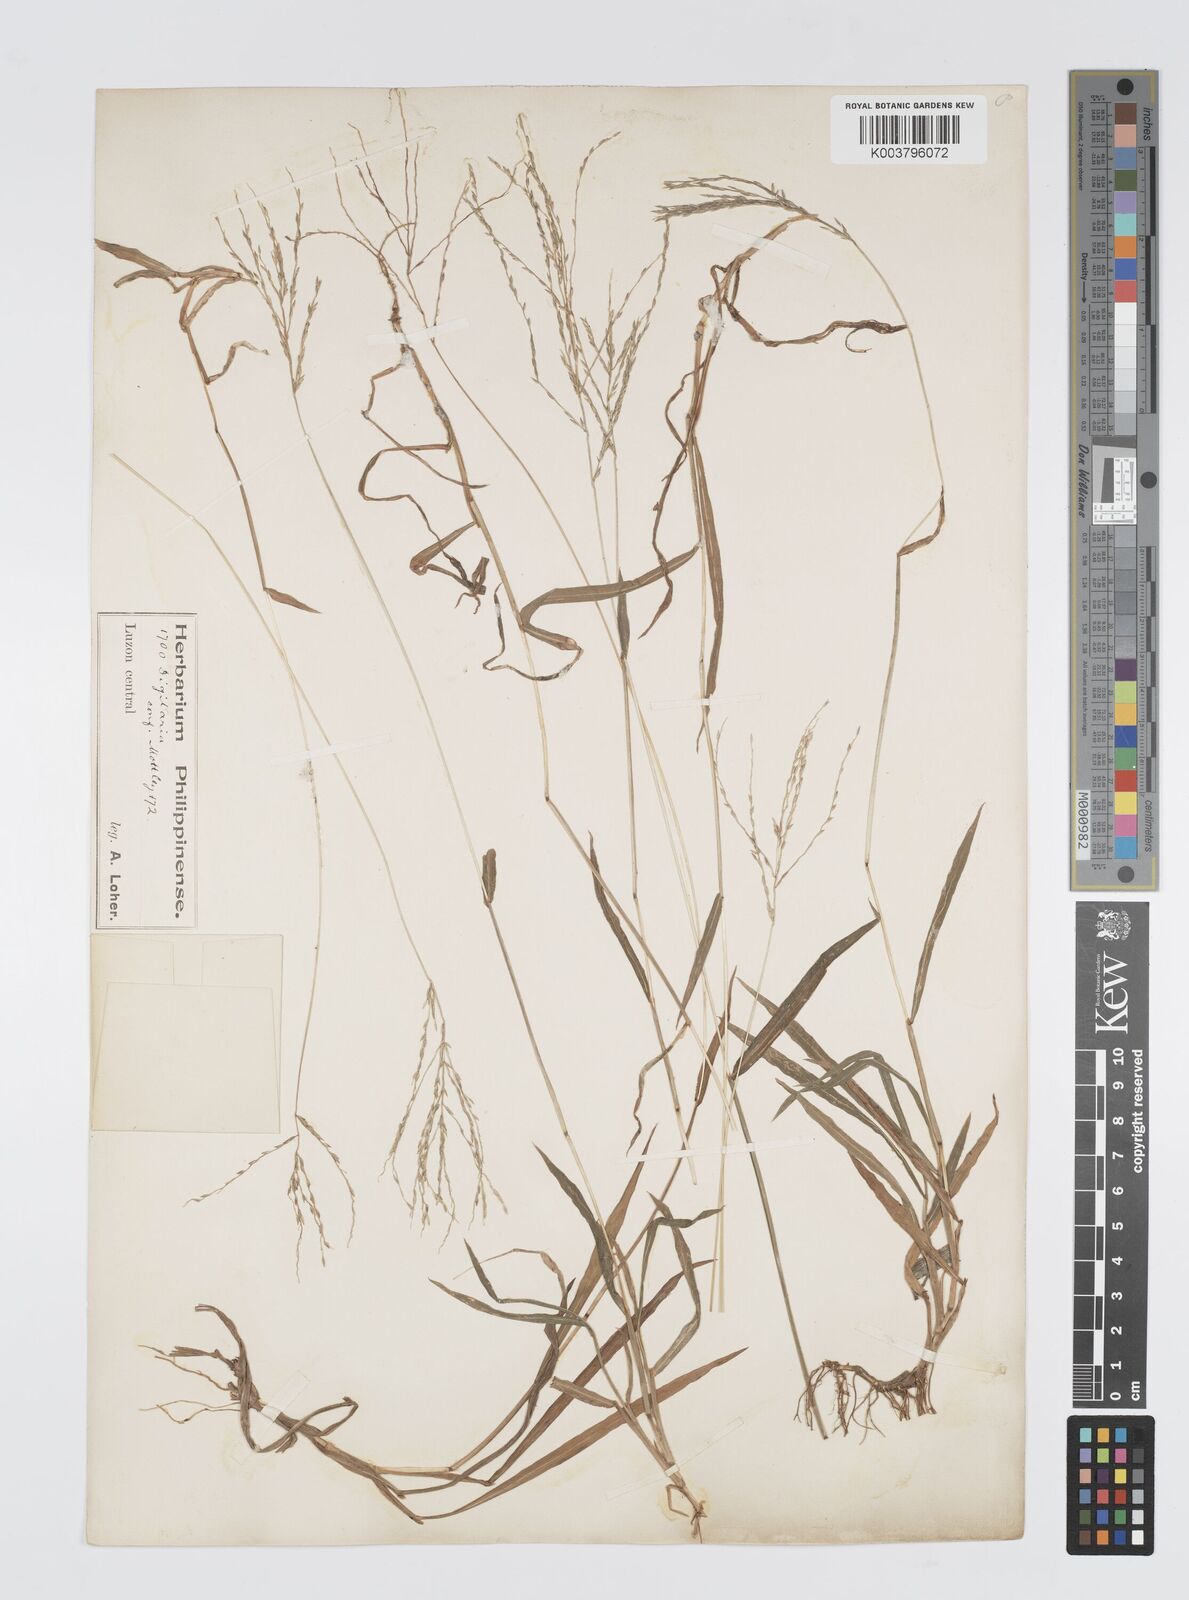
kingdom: Plantae
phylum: Tracheophyta
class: Liliopsida
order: Poales
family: Poaceae
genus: Digitaria
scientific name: Digitaria setigera
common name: East indian crabgrass
